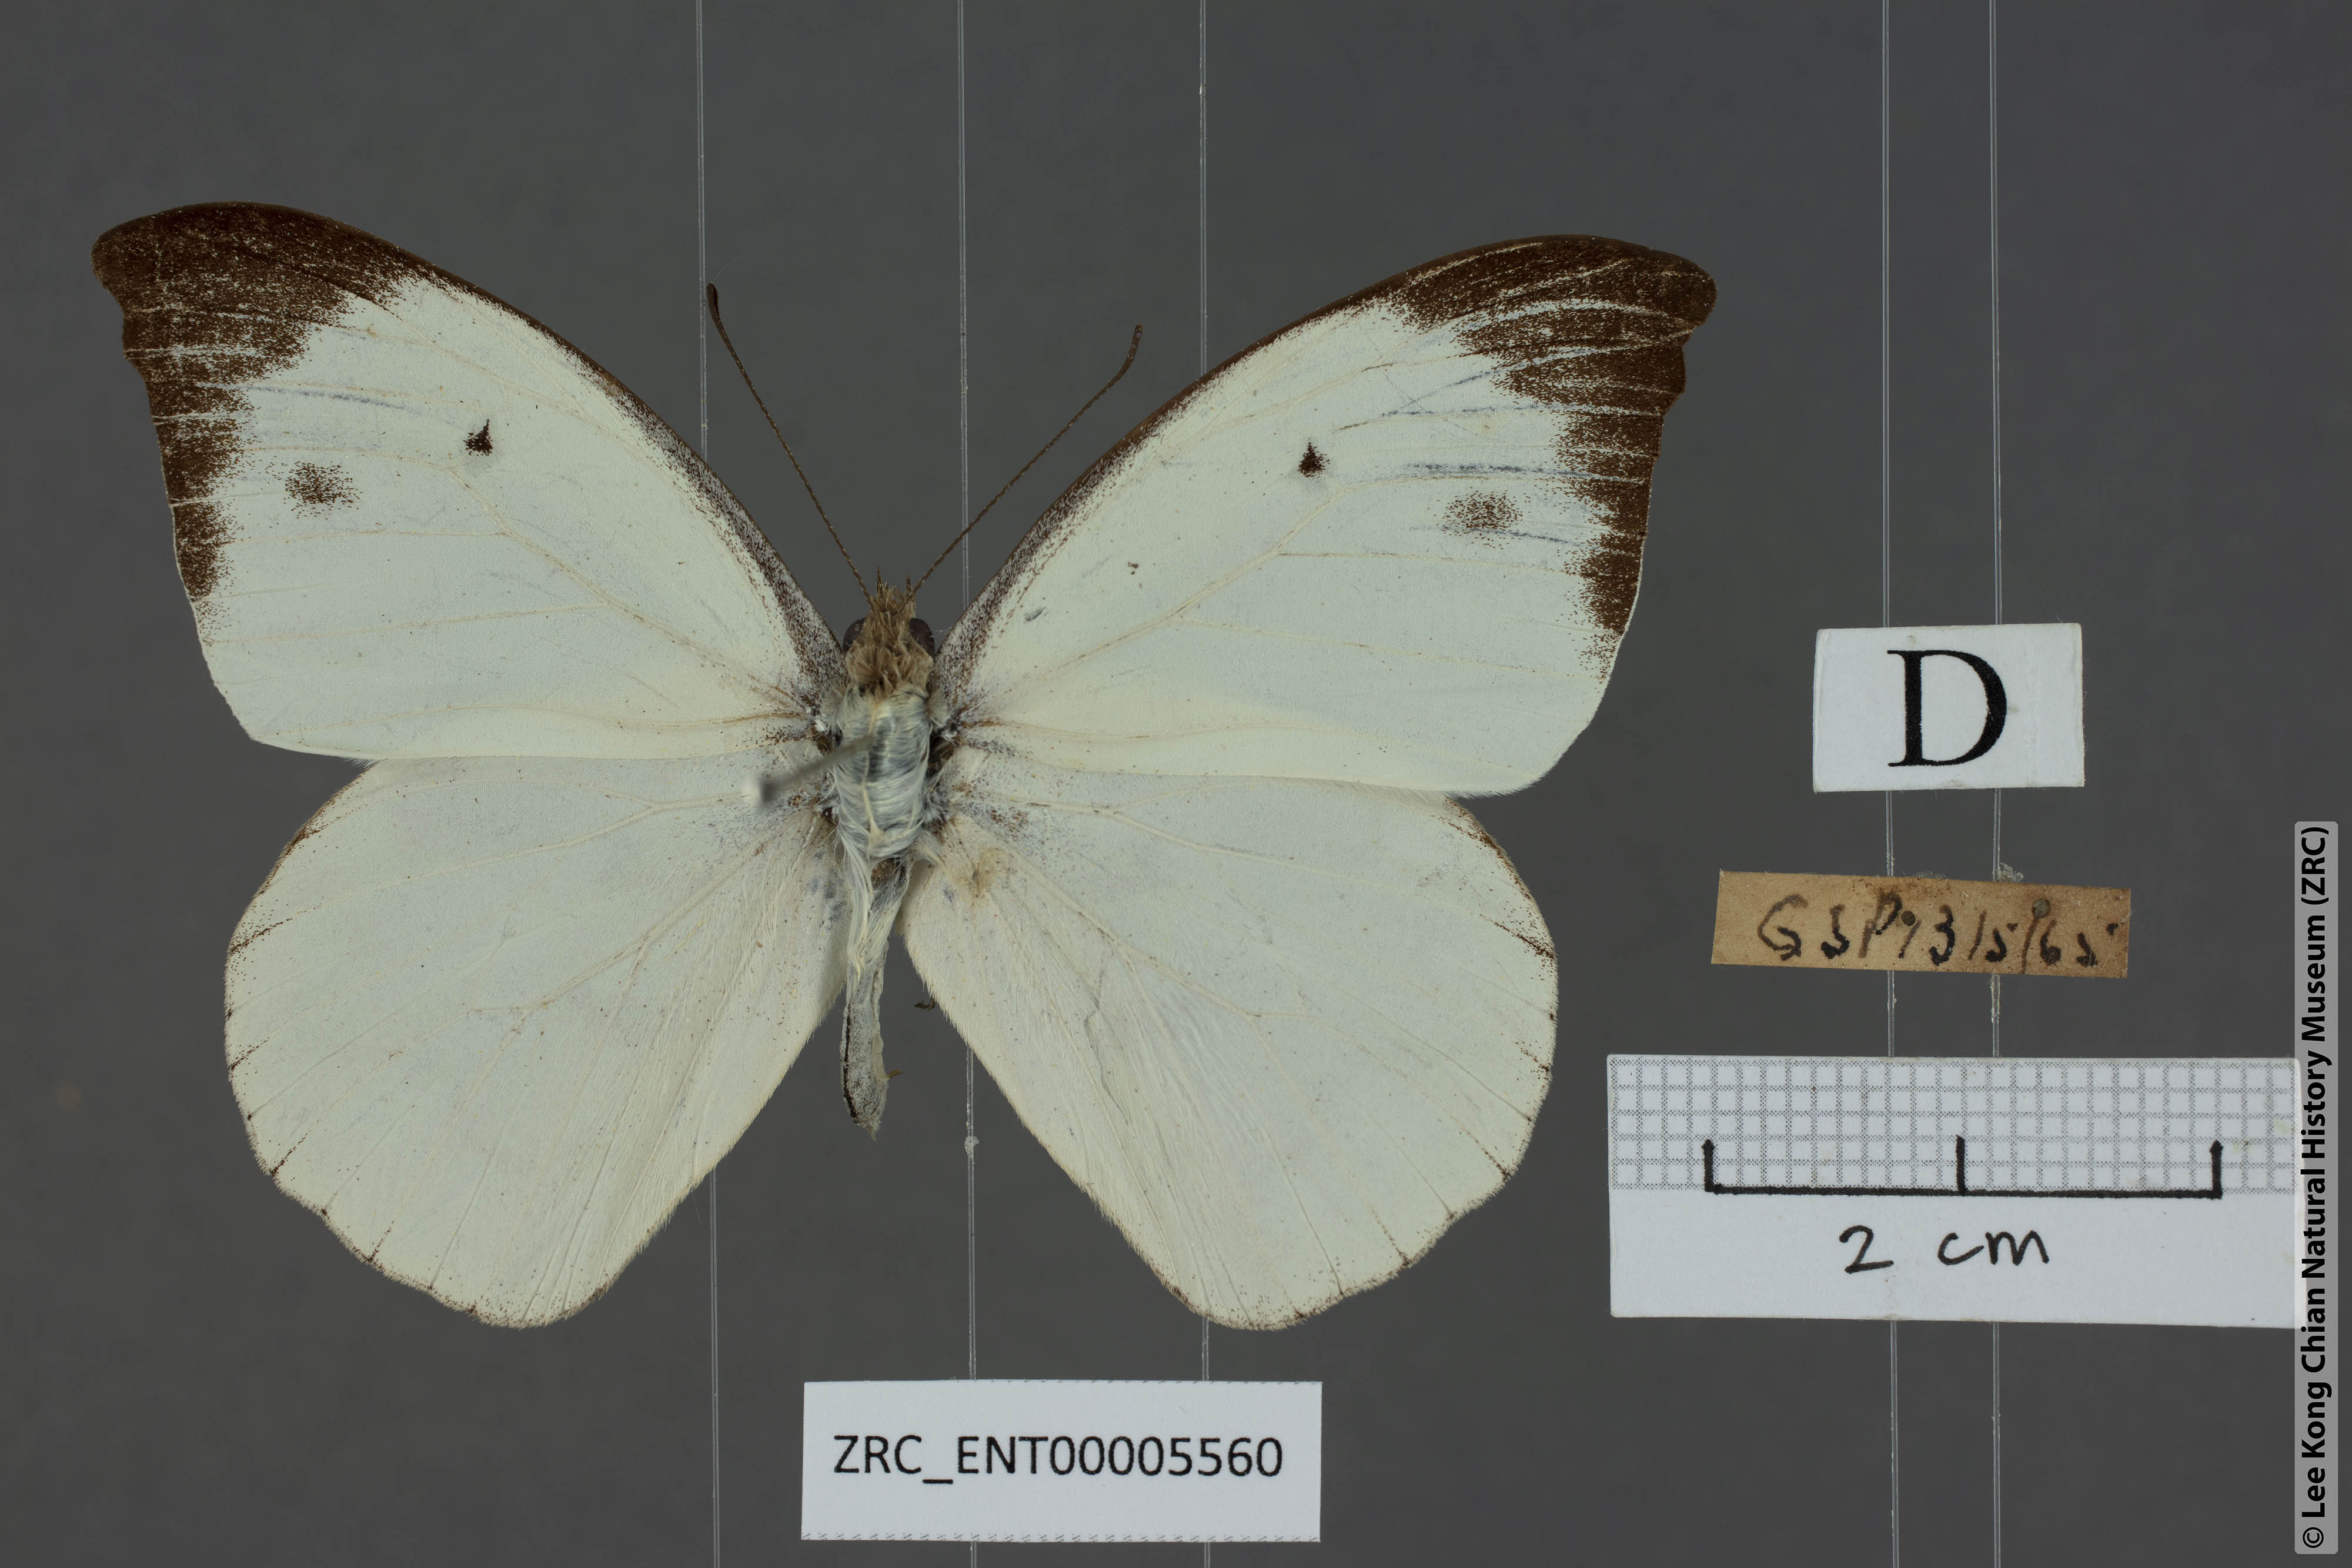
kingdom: Animalia
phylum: Arthropoda
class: Insecta
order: Lepidoptera
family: Pieridae
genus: Appias
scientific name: Appias lalassis
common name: Burmese puffin
